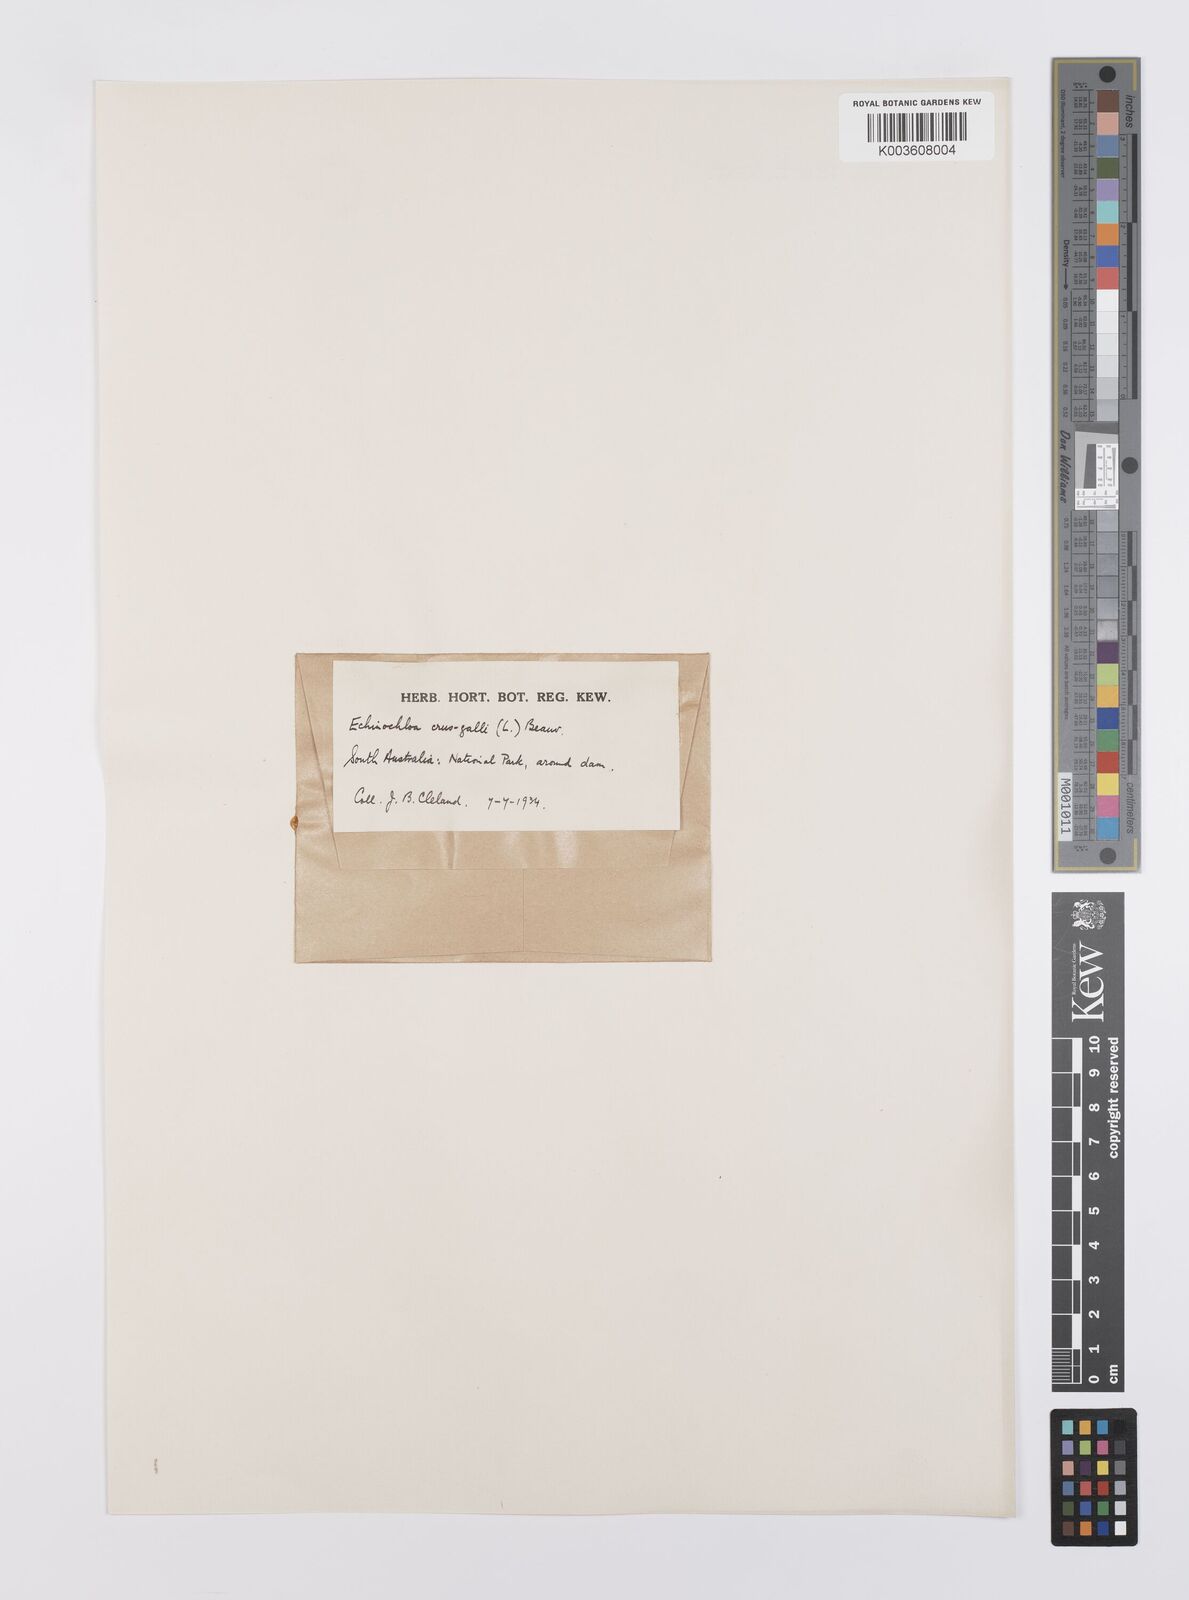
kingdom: Plantae
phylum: Tracheophyta
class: Liliopsida
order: Poales
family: Poaceae
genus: Echinochloa
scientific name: Echinochloa crus-galli
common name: Cockspur
